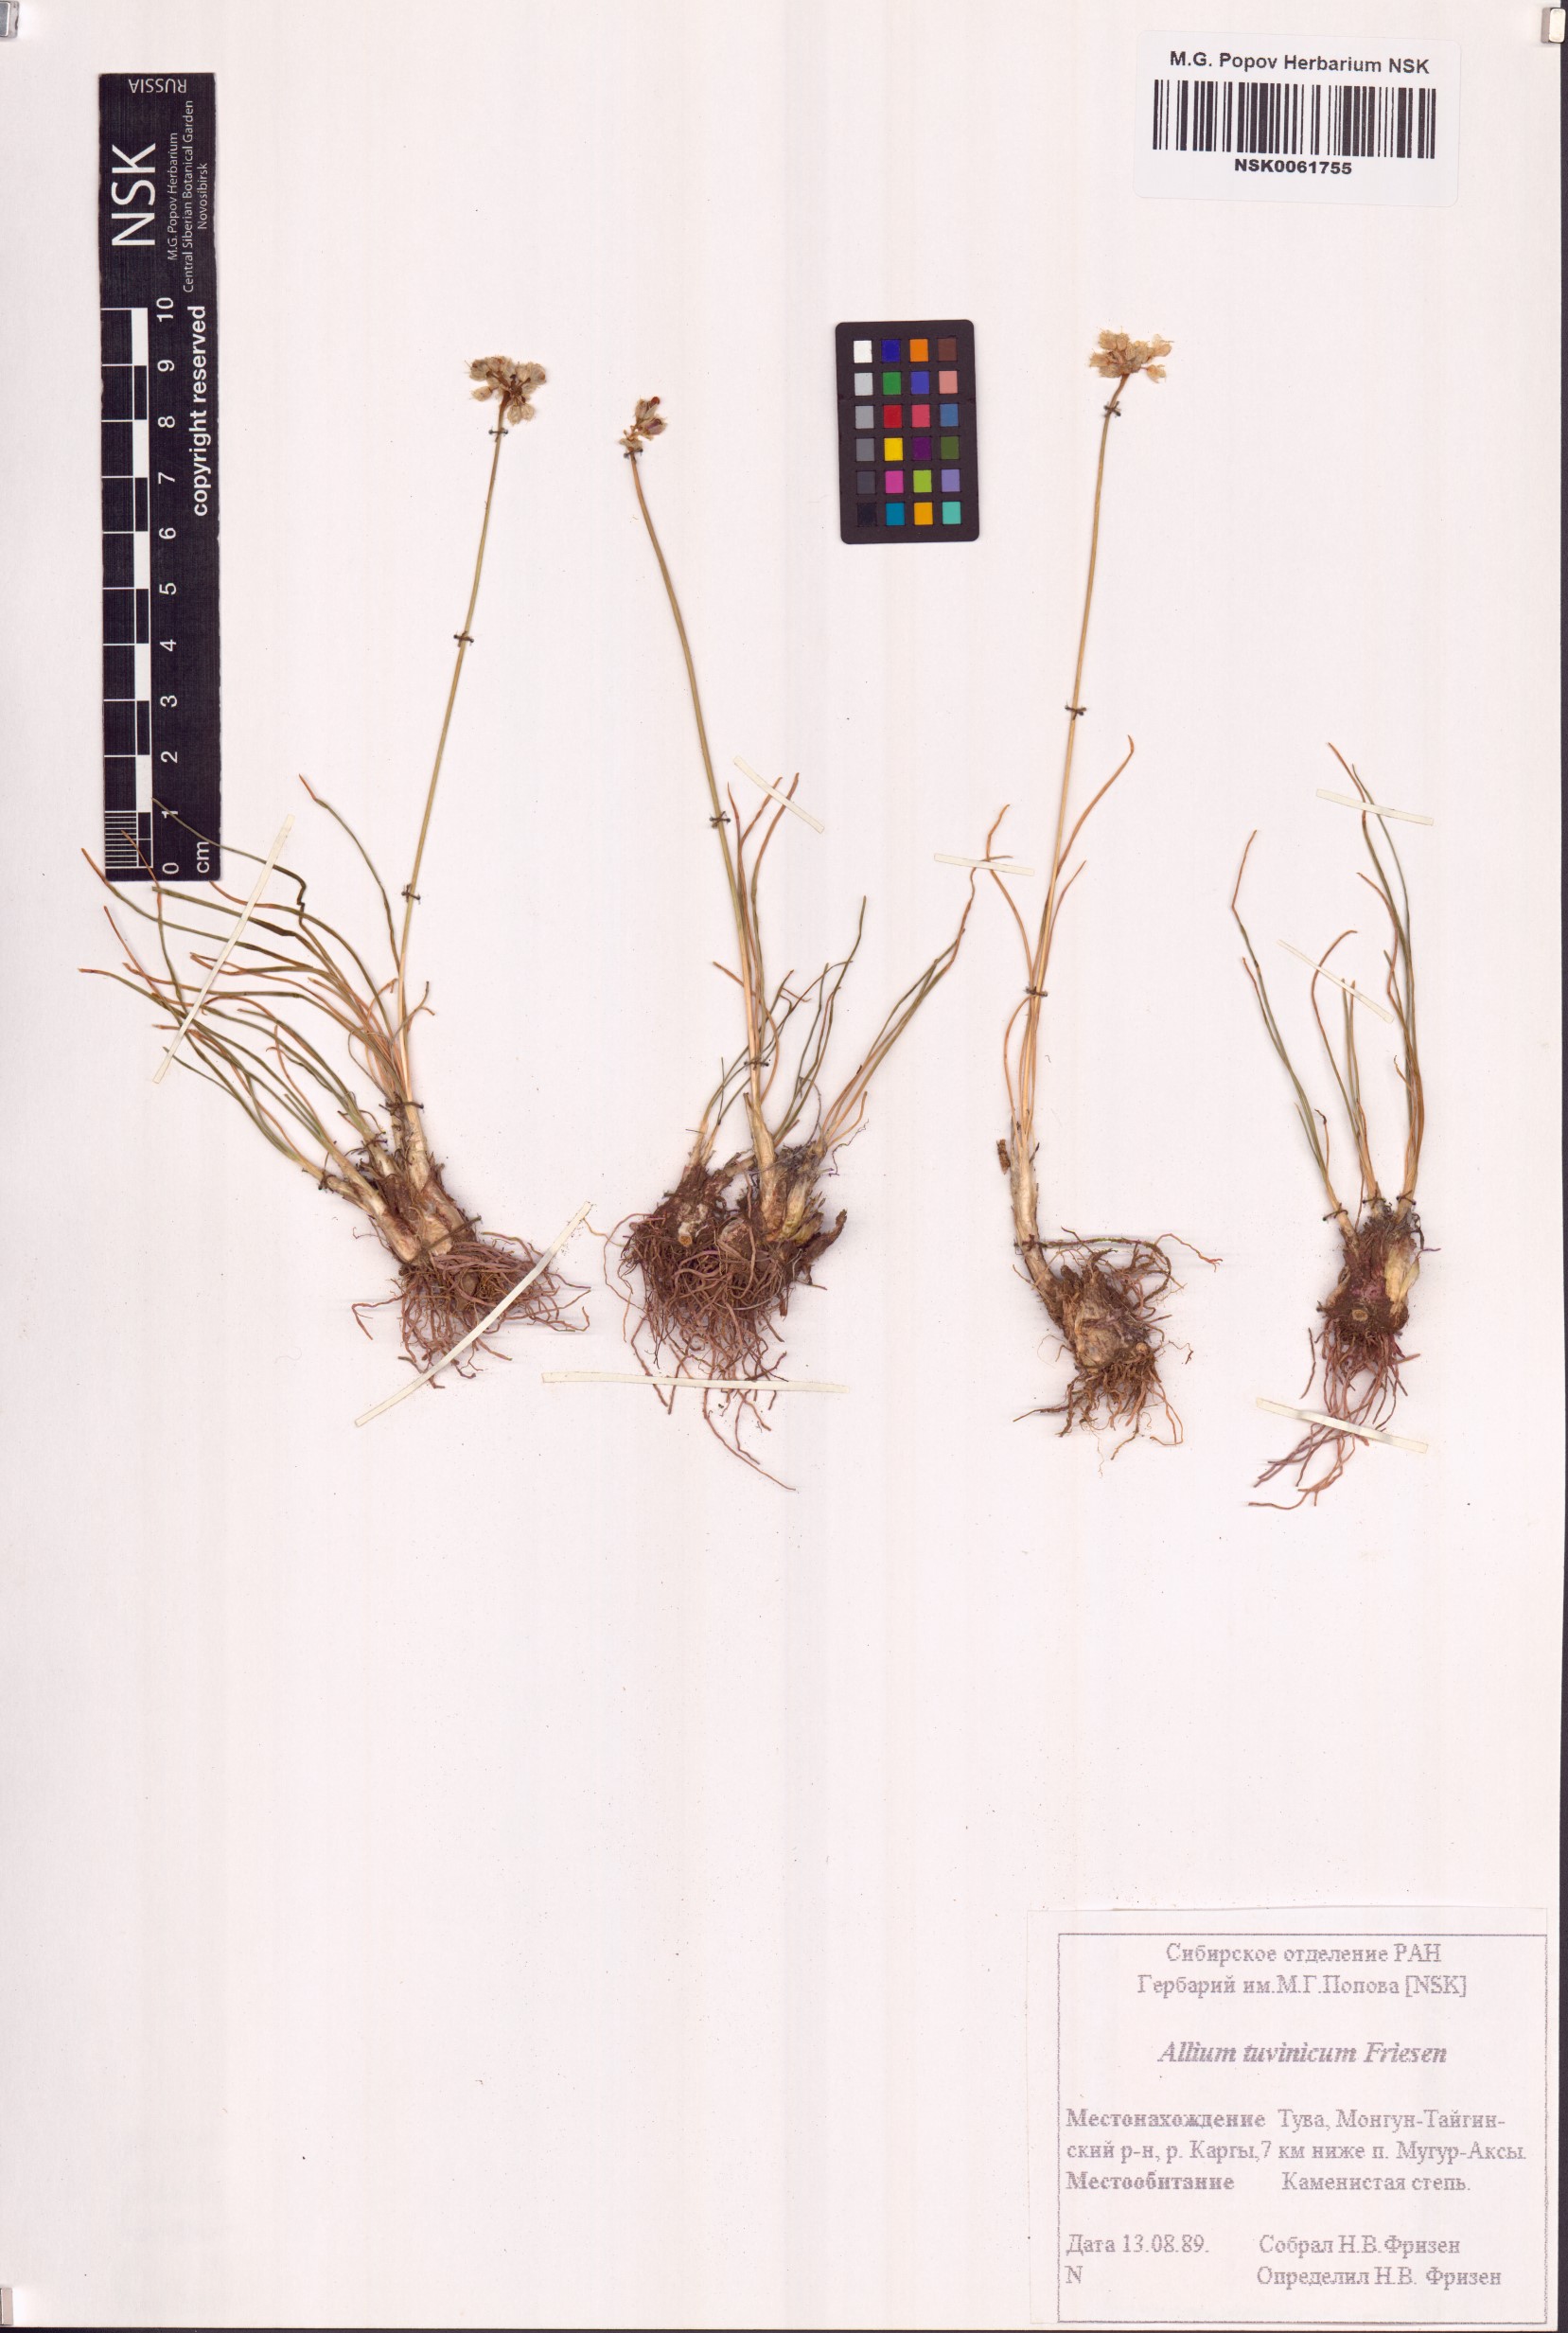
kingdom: Plantae
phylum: Tracheophyta
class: Liliopsida
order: Asparagales
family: Amaryllidaceae
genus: Allium
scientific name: Allium tuvinicum
